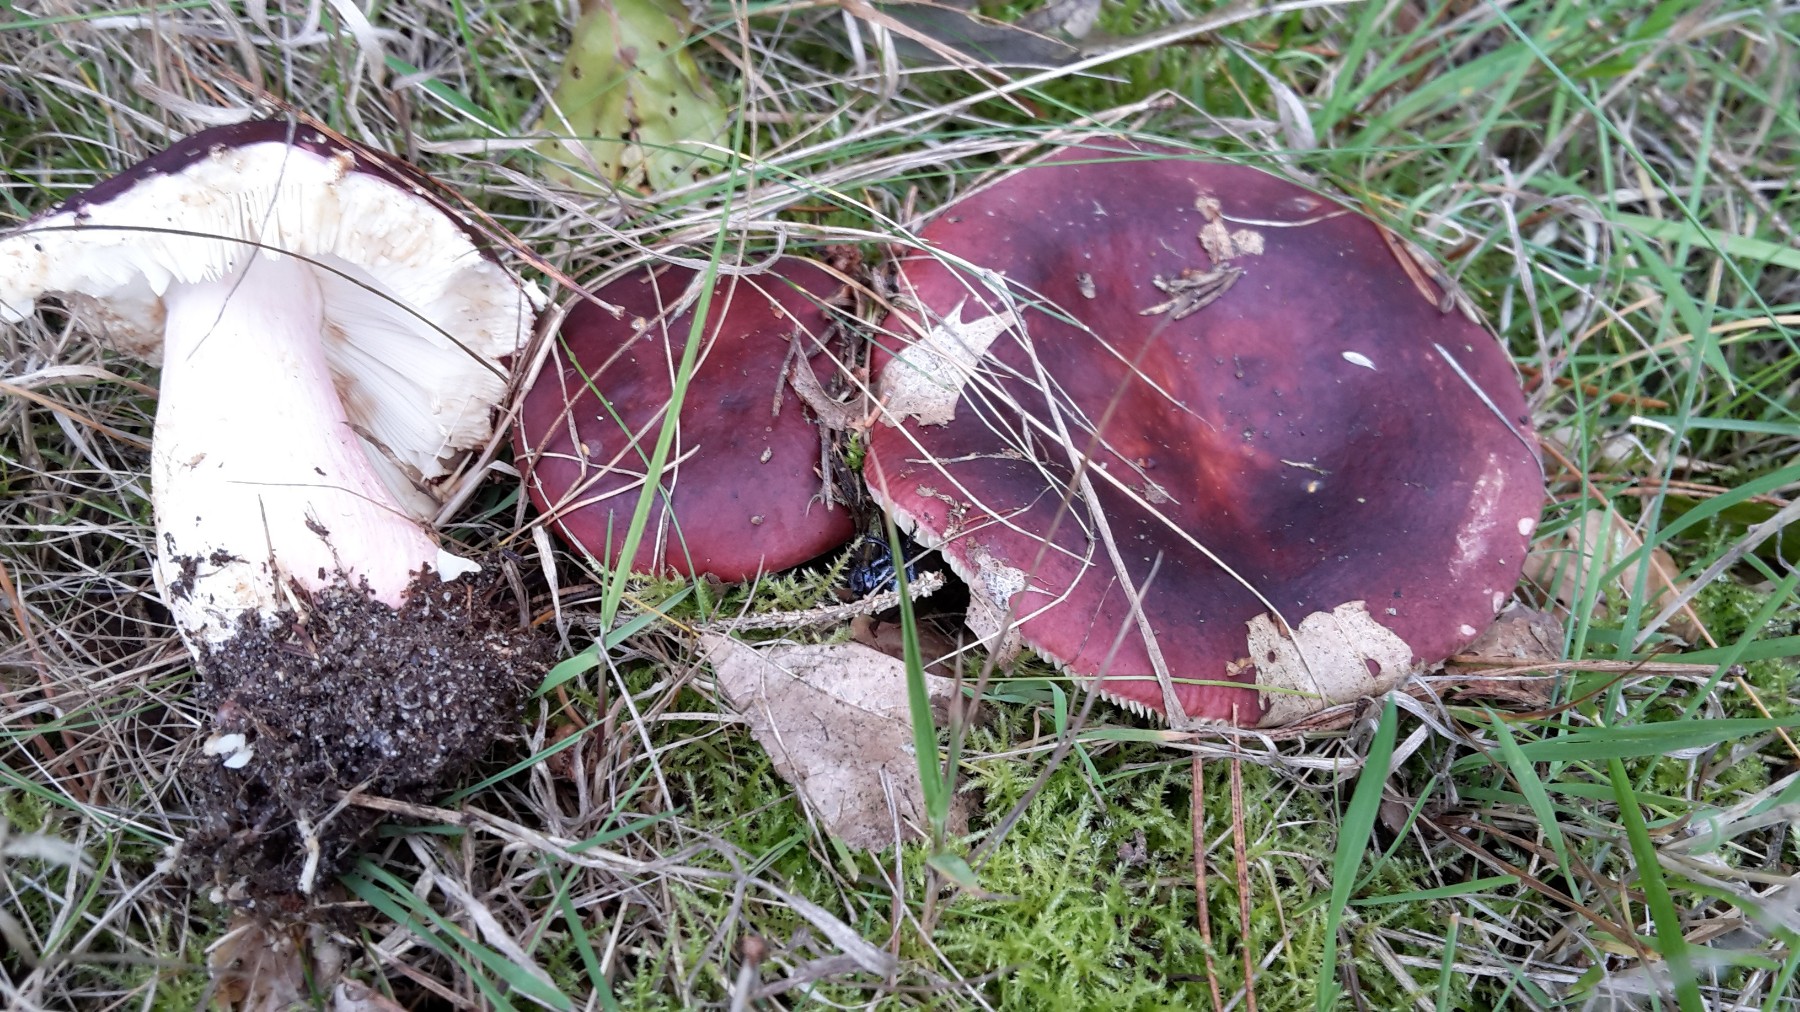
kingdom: Fungi
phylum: Basidiomycota
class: Agaricomycetes
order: Russulales
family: Russulaceae
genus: Russula
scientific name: Russula xerampelina
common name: hummer-skørhat
